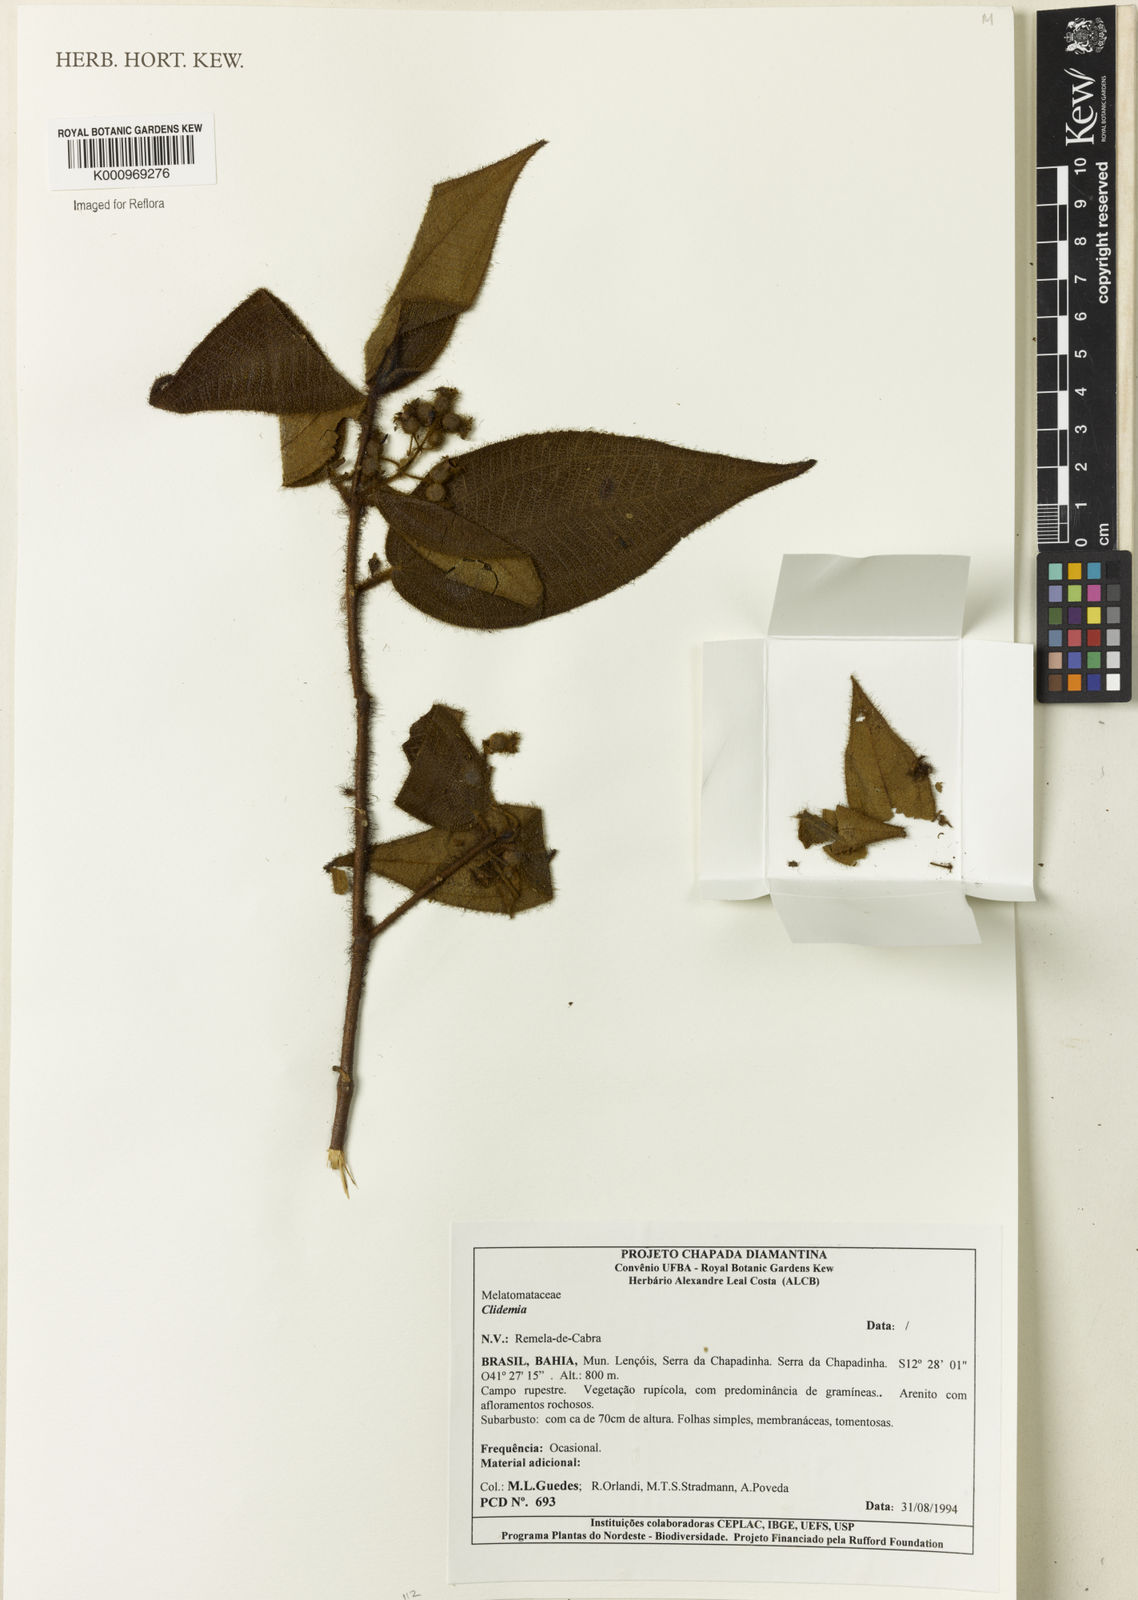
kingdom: Plantae
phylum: Tracheophyta
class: Magnoliopsida
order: Myrtales
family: Melastomataceae
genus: Miconia
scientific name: Miconia
